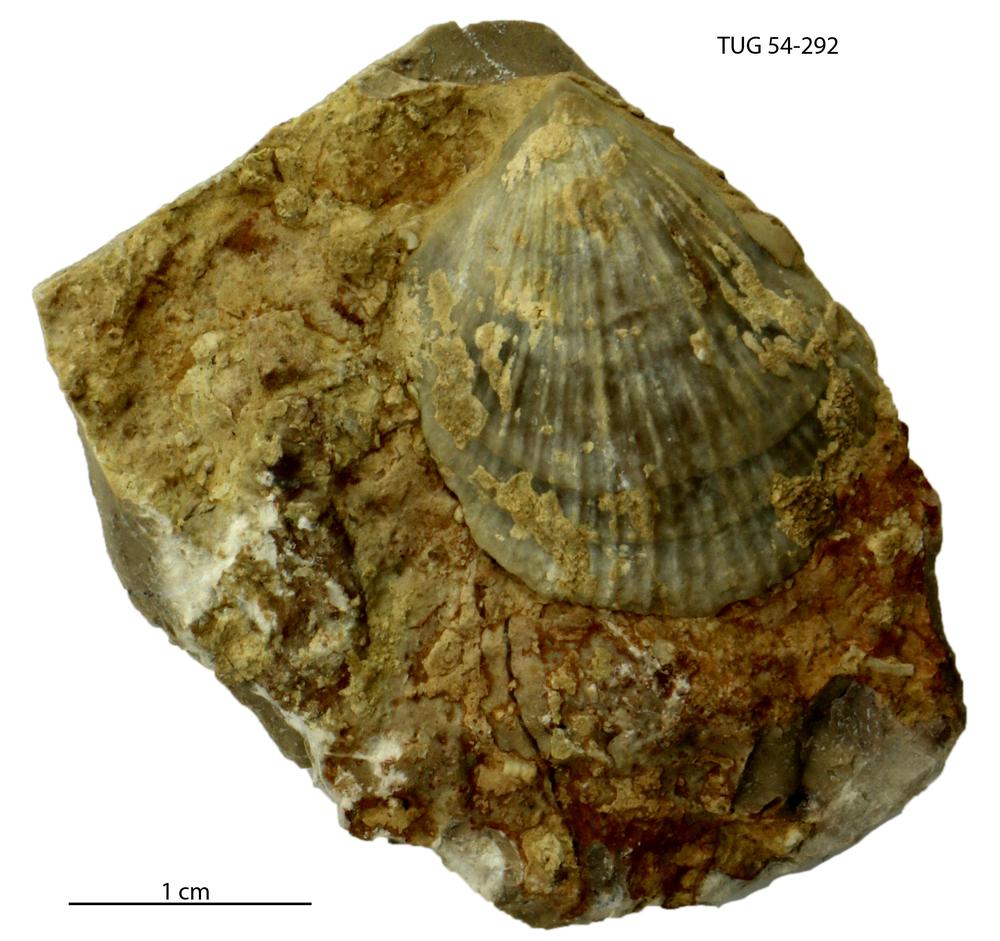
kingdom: Animalia
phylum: Brachiopoda
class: Rhynchonellata
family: Clitambonitidae
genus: Vellamo
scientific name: Vellamo Orthis verneuili
